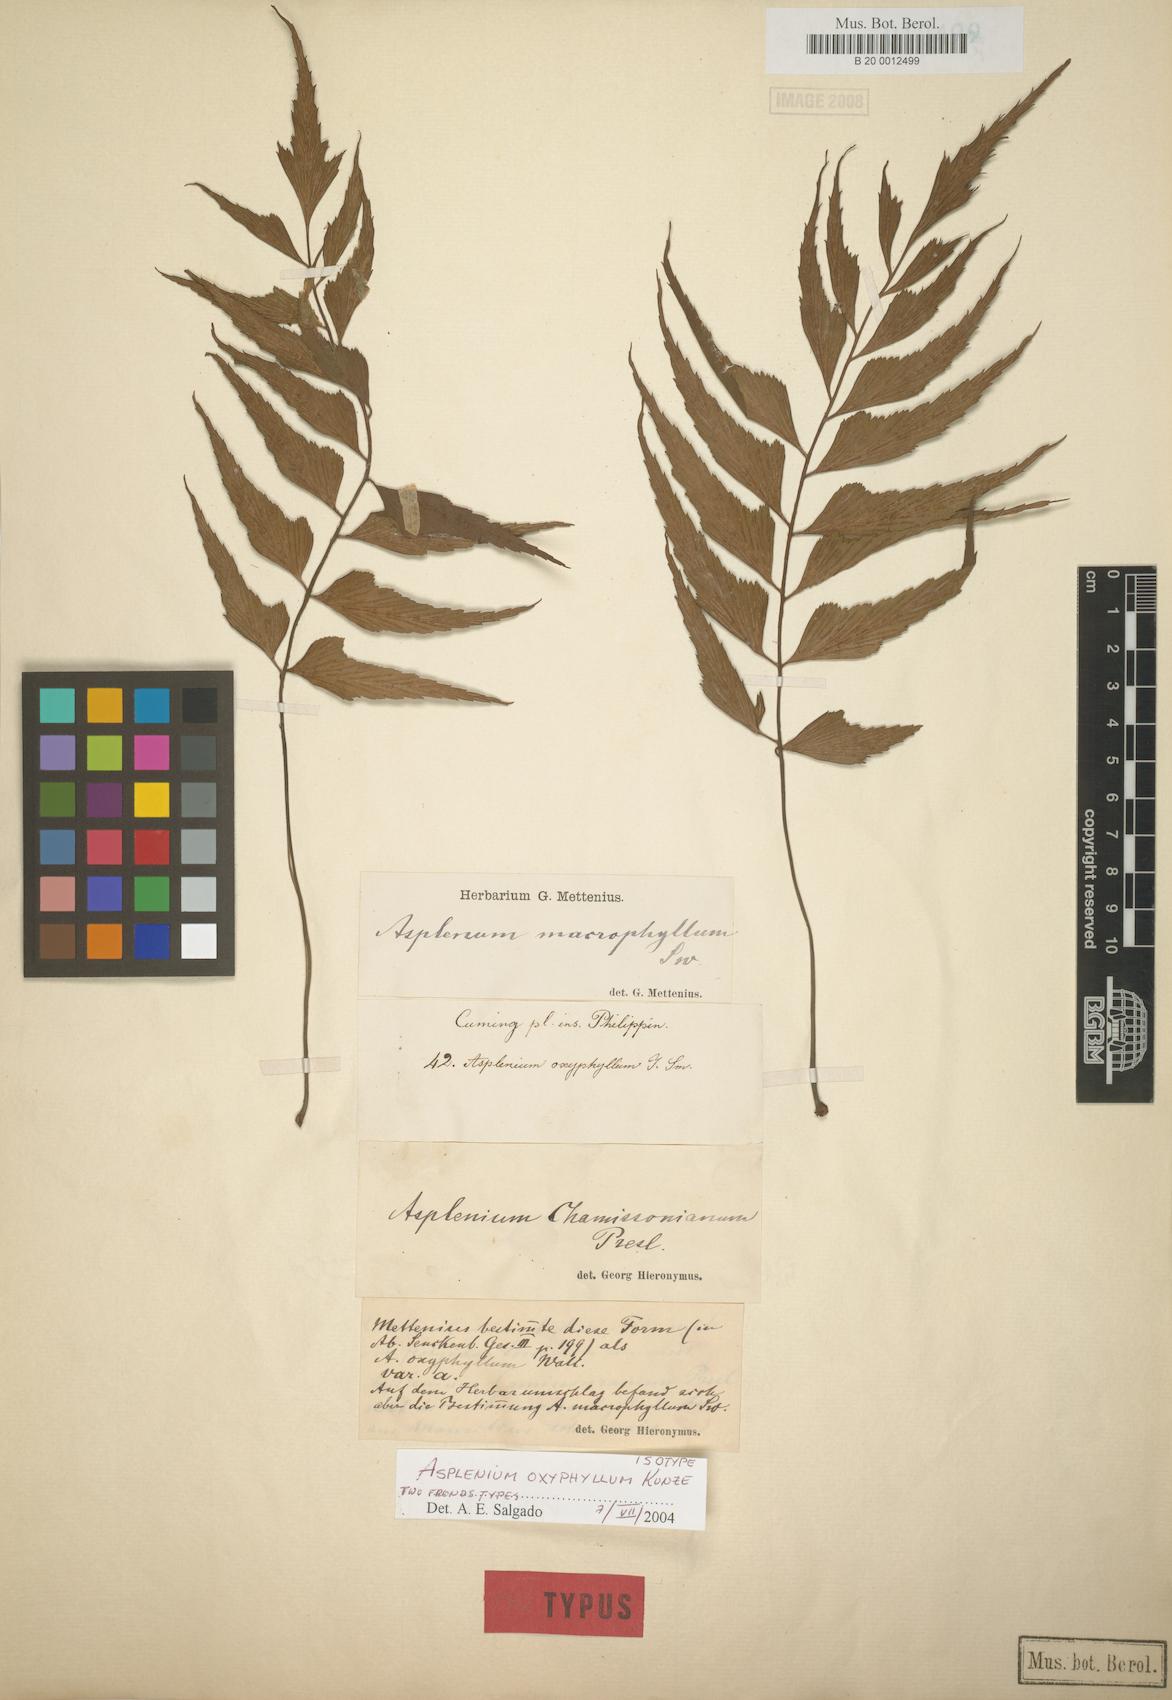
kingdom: Plantae
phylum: Tracheophyta
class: Polypodiopsida
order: Polypodiales
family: Athyriaceae
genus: Athyrium
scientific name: Athyrium puncticaule
